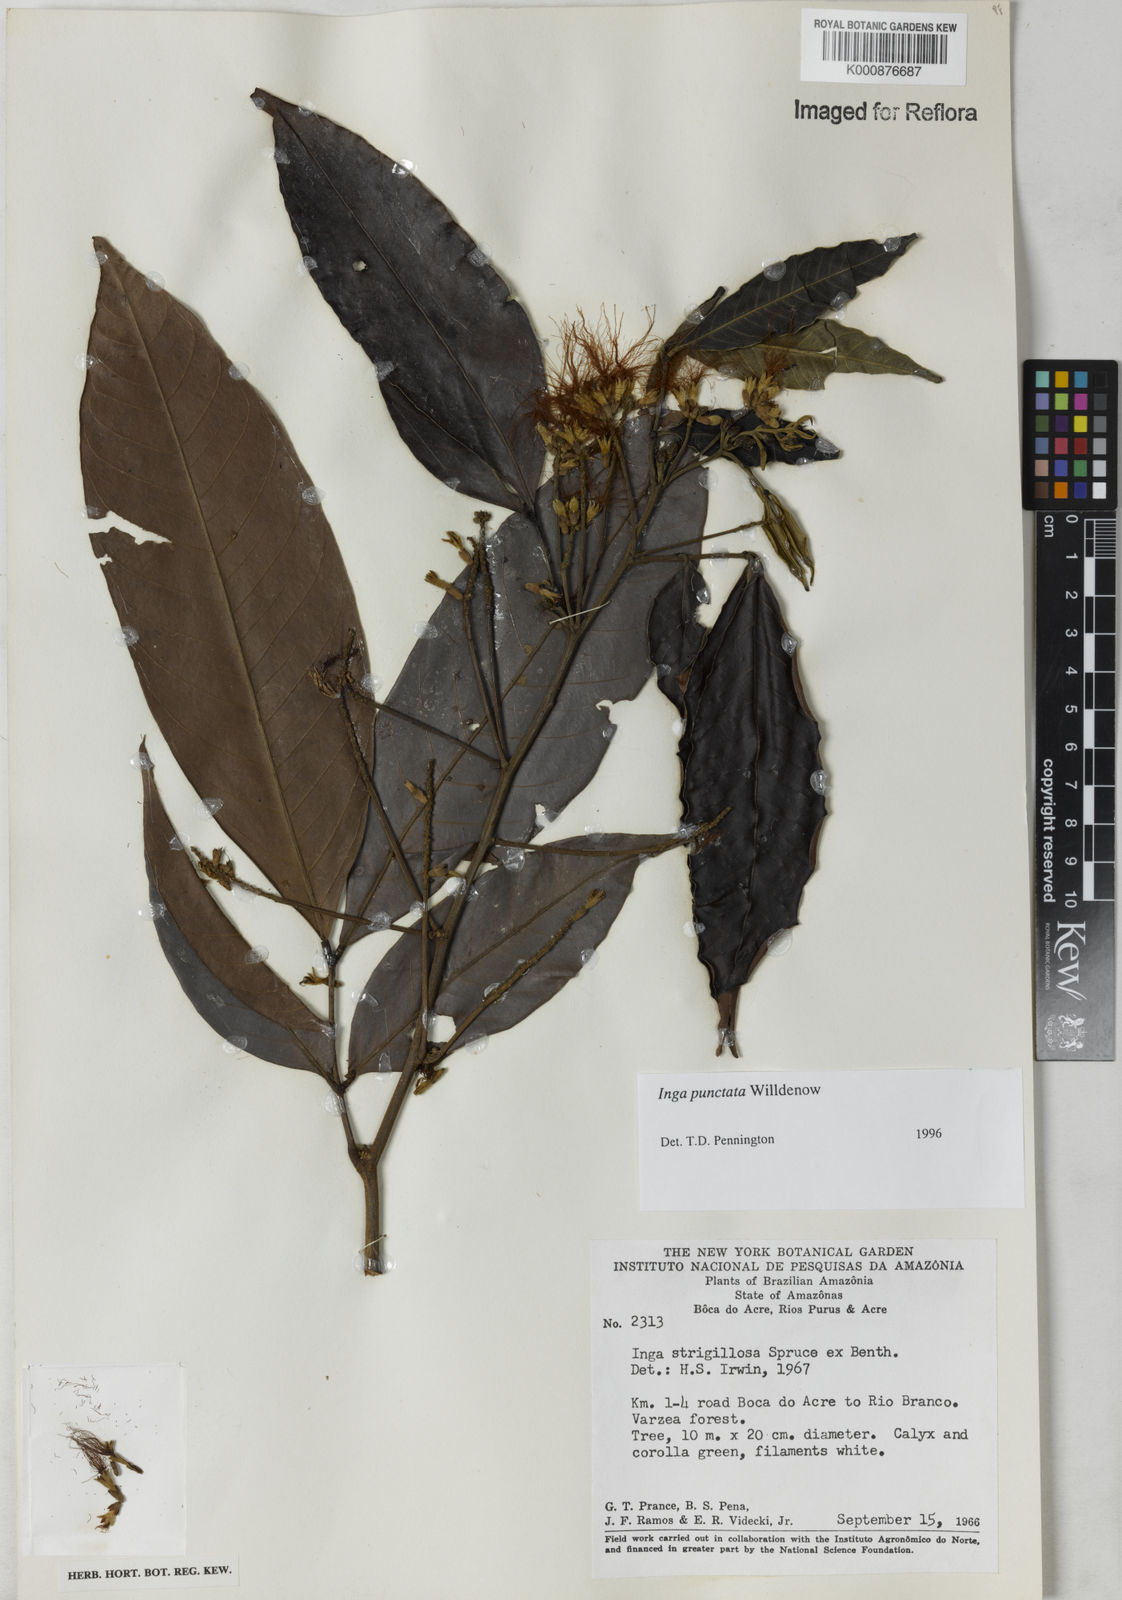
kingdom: Plantae
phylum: Tracheophyta
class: Magnoliopsida
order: Fabales
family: Fabaceae
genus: Inga
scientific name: Inga punctata
